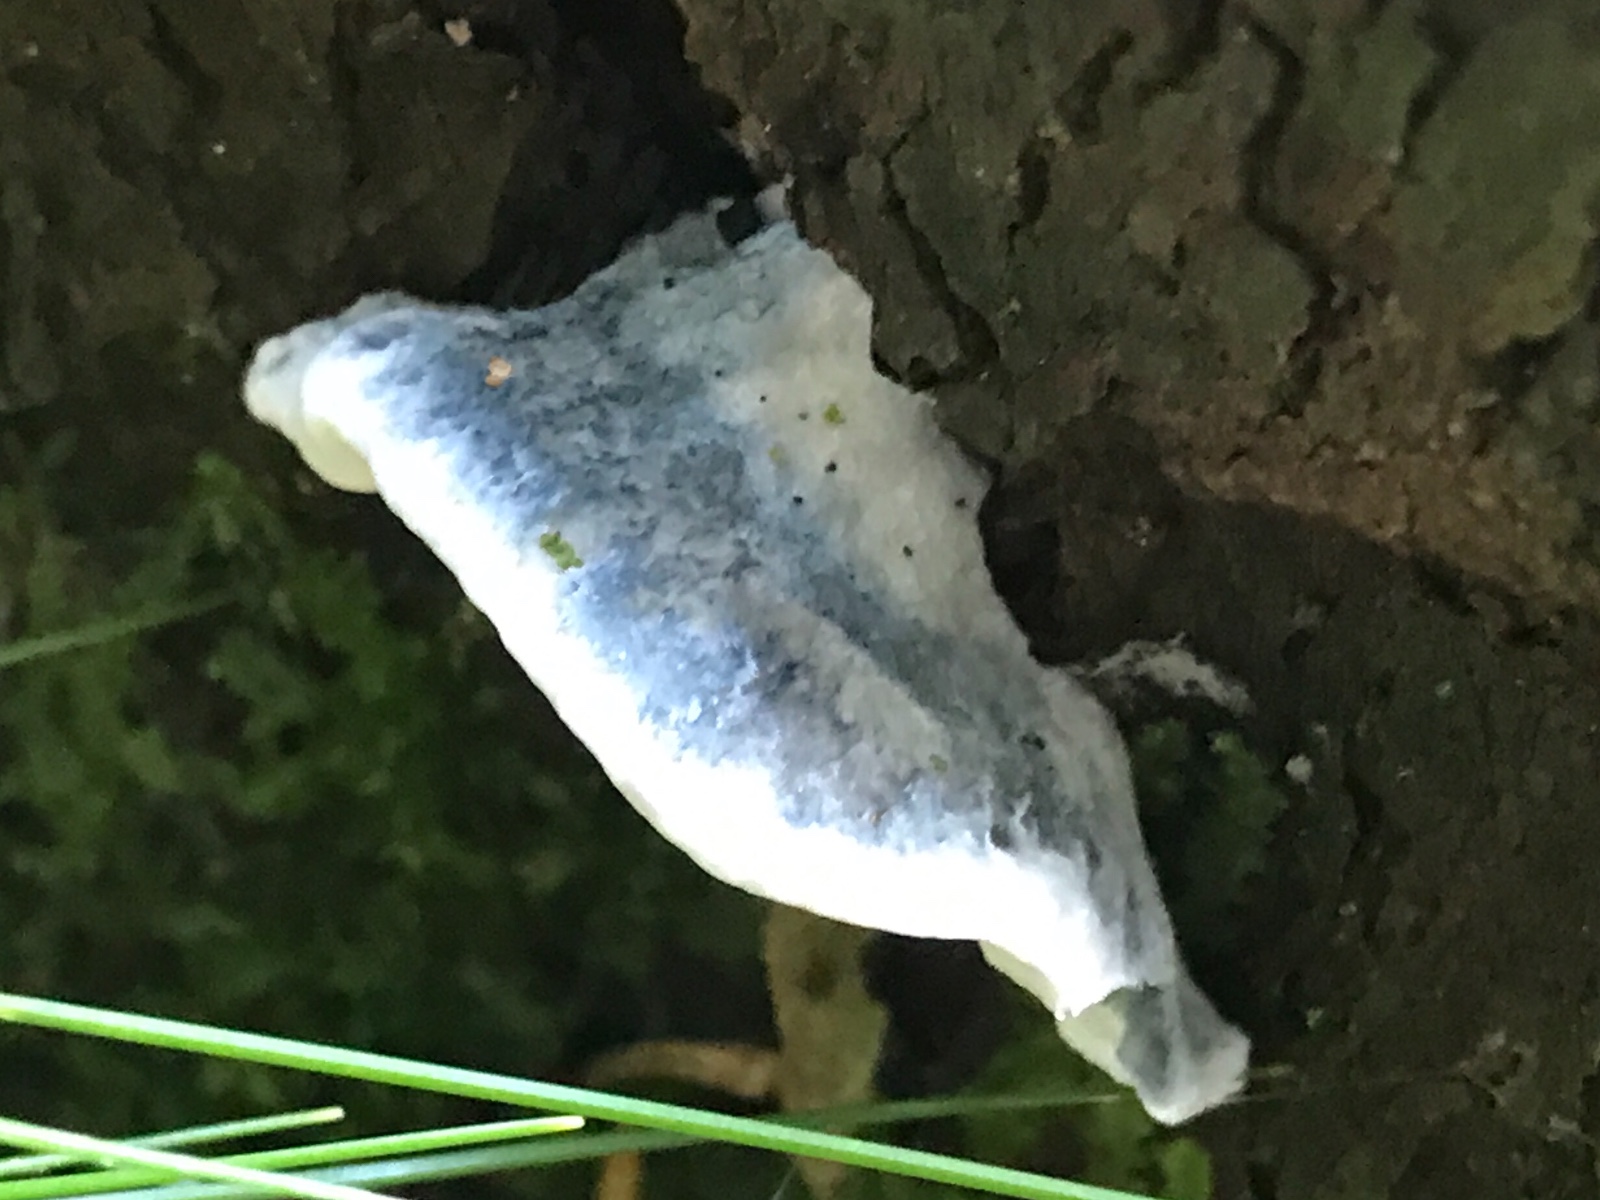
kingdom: Fungi
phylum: Basidiomycota
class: Agaricomycetes
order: Polyporales
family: Polyporaceae
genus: Cyanosporus
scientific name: Cyanosporus caesius
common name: blålig kødporesvamp
